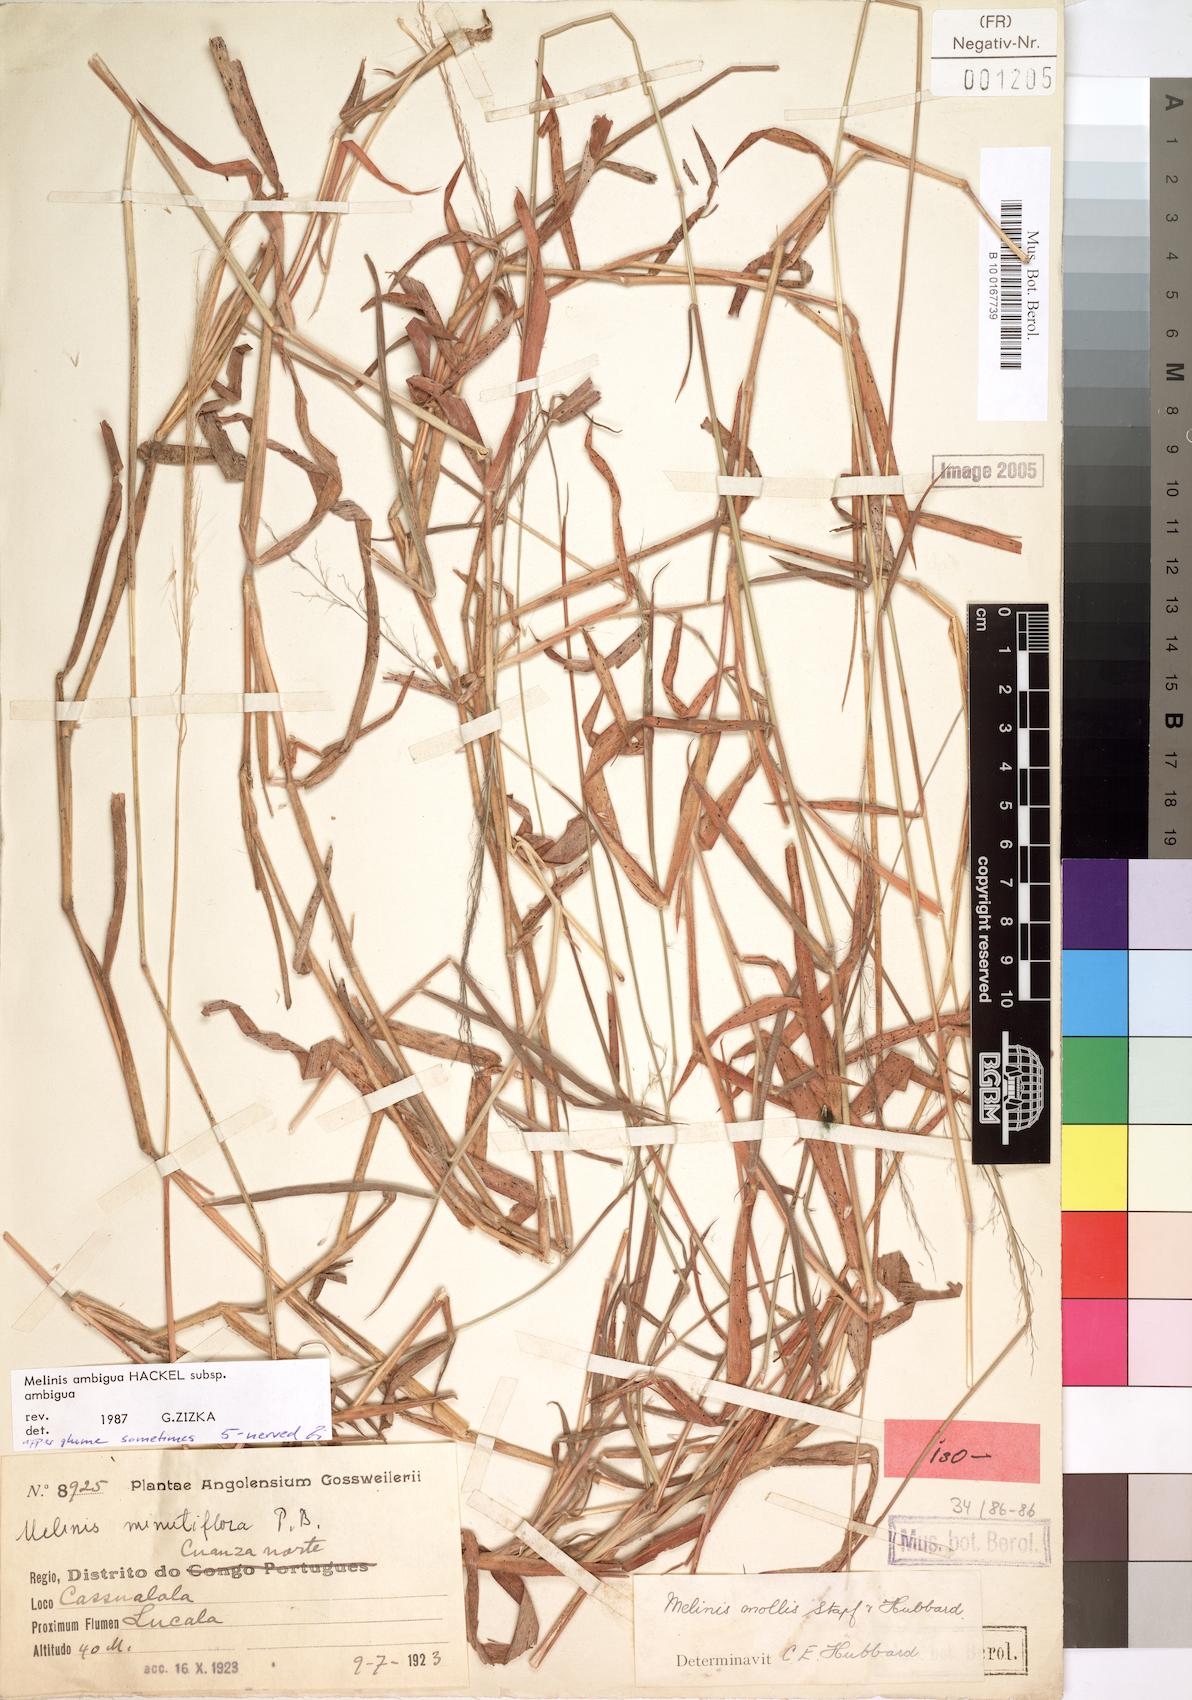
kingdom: Plantae
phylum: Tracheophyta
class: Liliopsida
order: Poales
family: Poaceae
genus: Melinis
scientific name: Melinis ambigua
